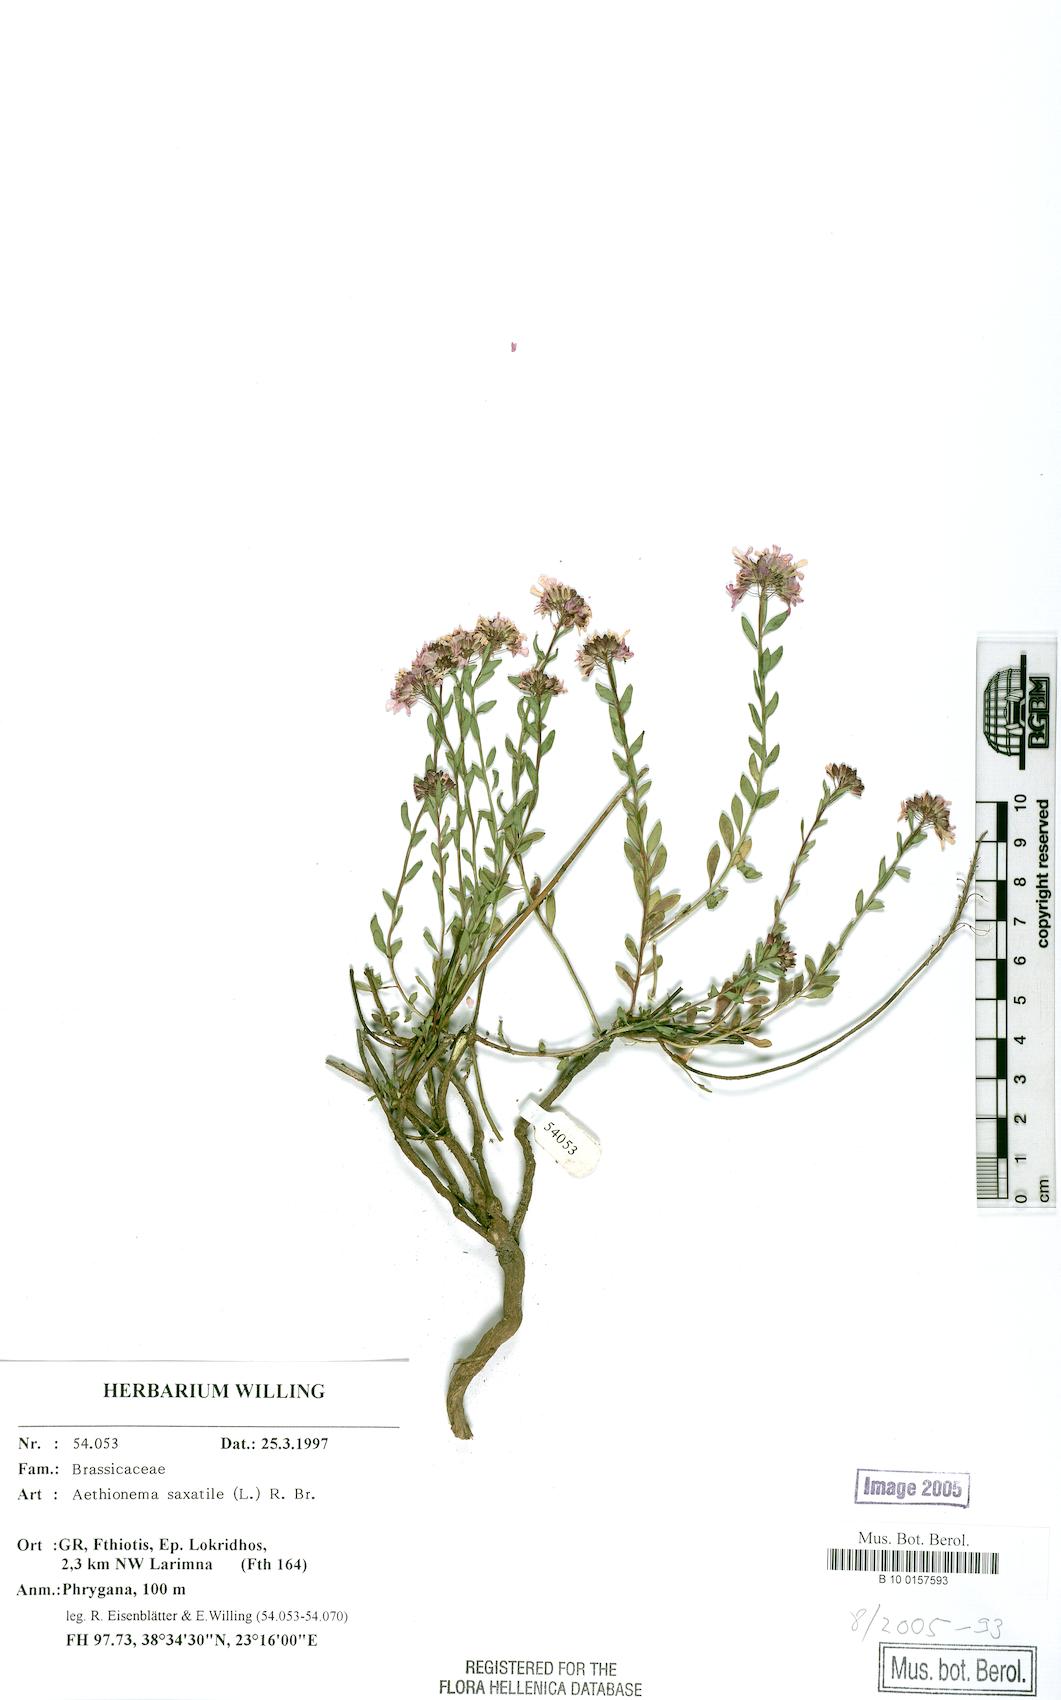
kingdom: Plantae
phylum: Tracheophyta
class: Magnoliopsida
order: Brassicales
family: Brassicaceae
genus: Aethionema
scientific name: Aethionema saxatile
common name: Burnt candytuft
